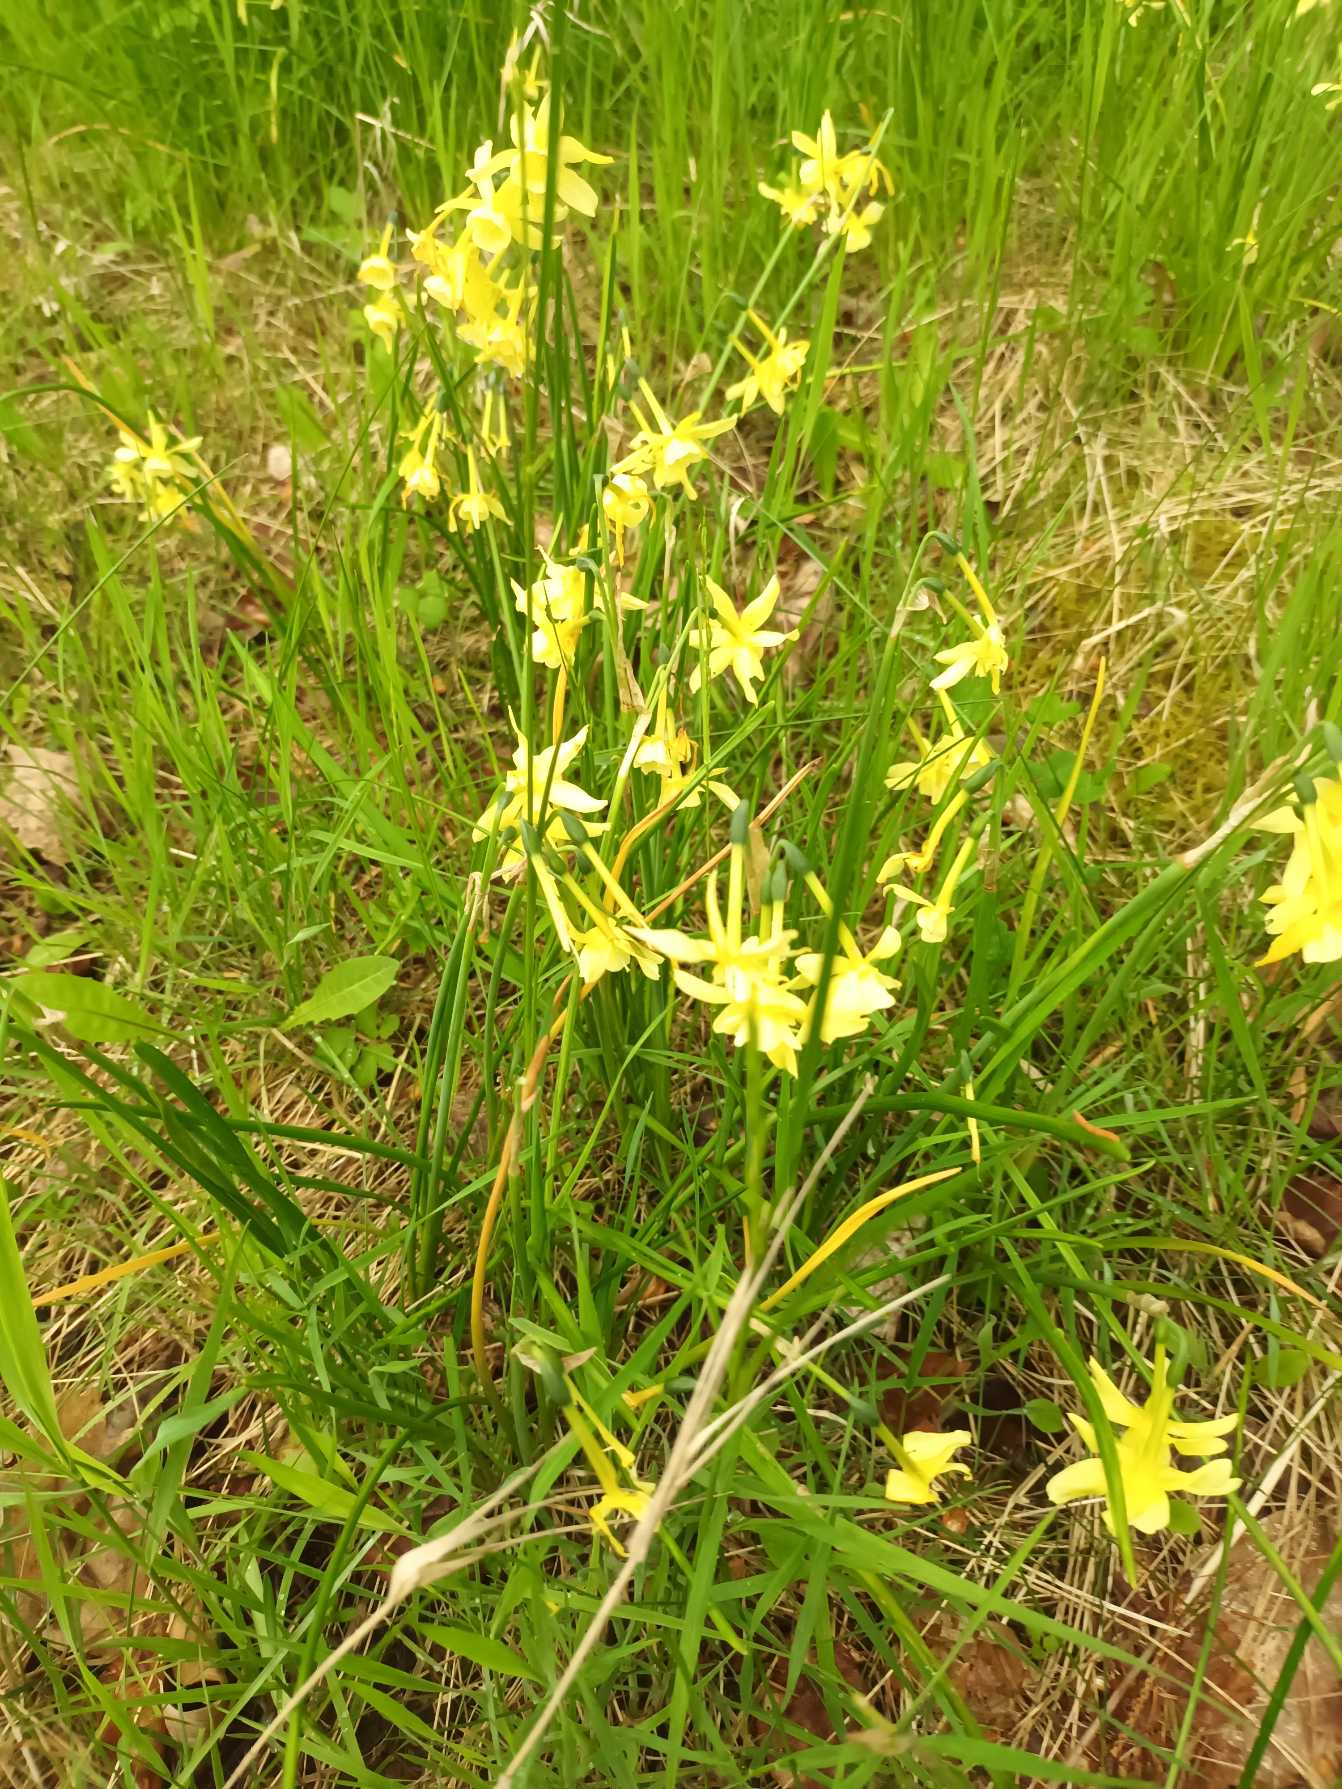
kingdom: Plantae
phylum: Tracheophyta
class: Liliopsida
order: Asparagales
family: Amaryllidaceae
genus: Narcissus
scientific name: Narcissus jonquilla
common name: Siv-narcis
